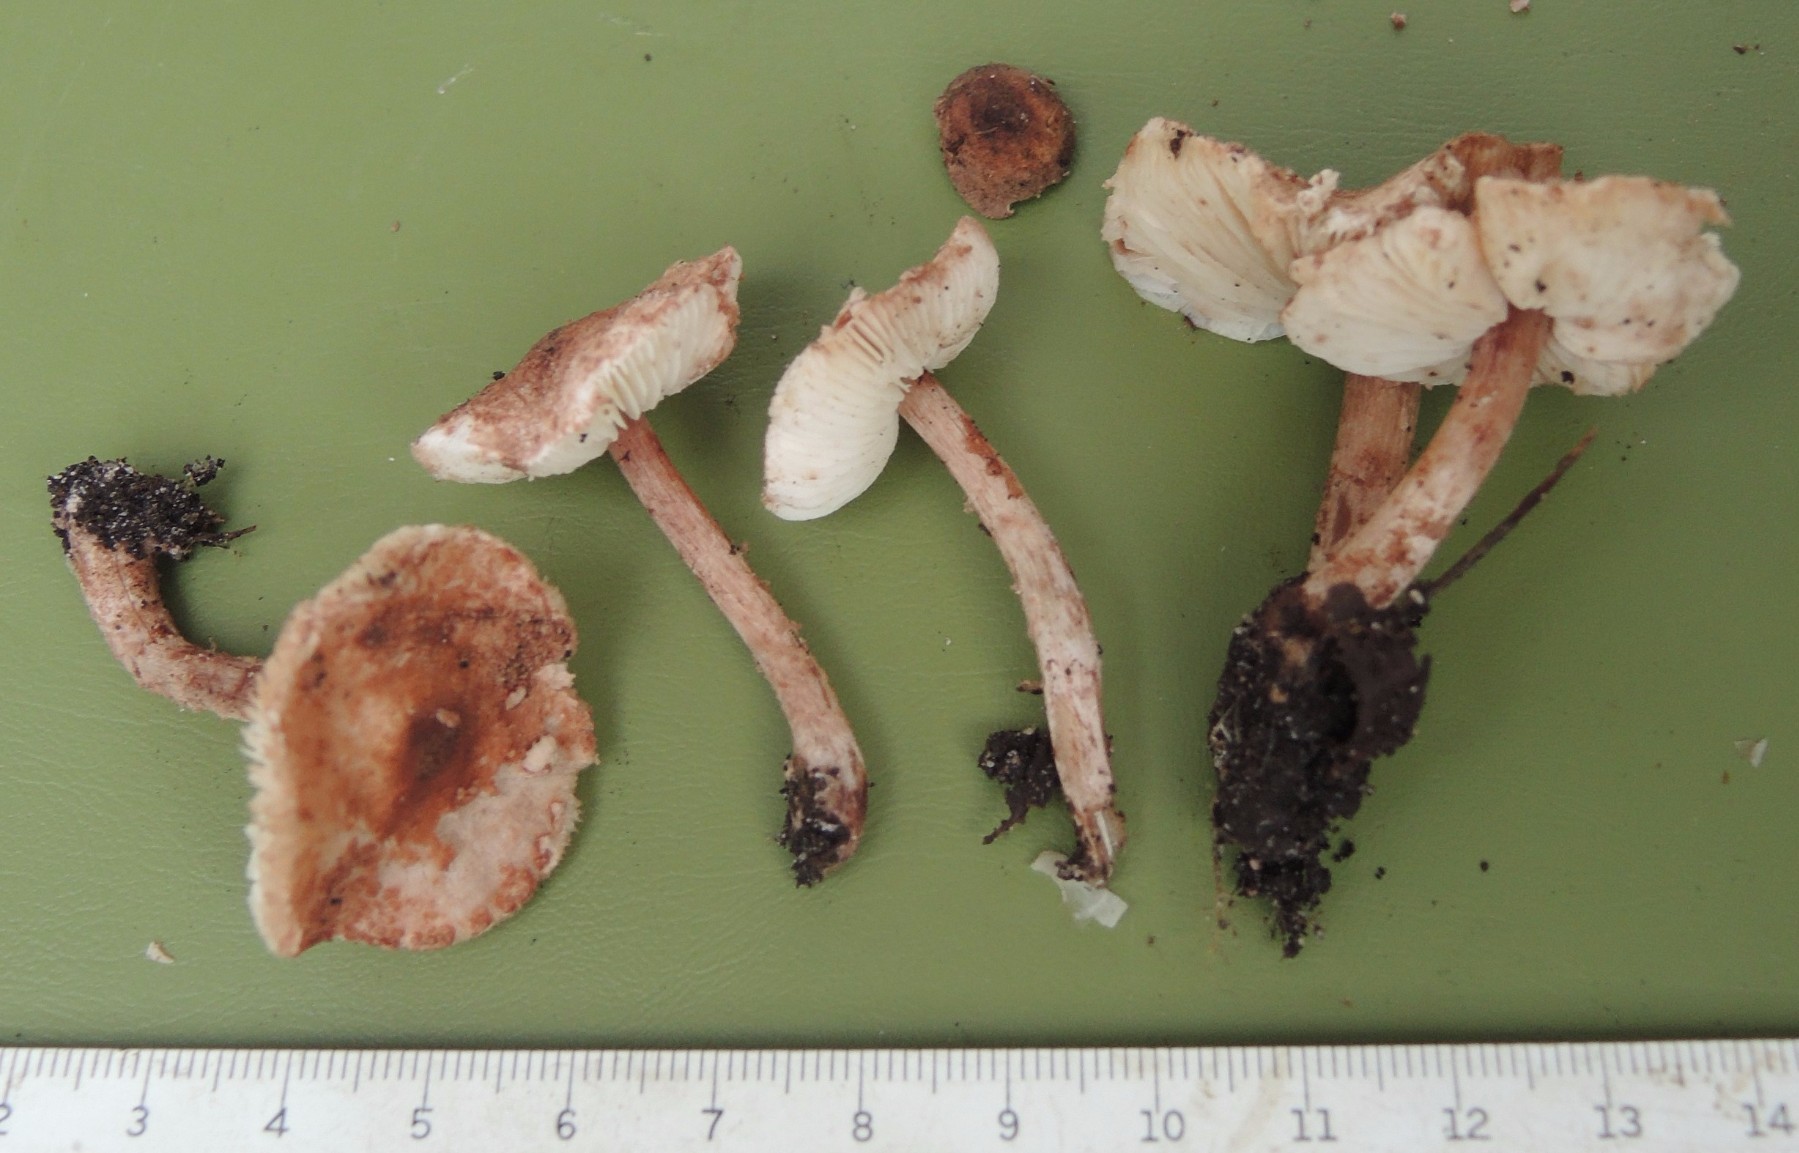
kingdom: Fungi
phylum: Basidiomycota
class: Agaricomycetes
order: Agaricales
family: Agaricaceae
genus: Cystolepiota
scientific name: Cystolepiota moelleri
